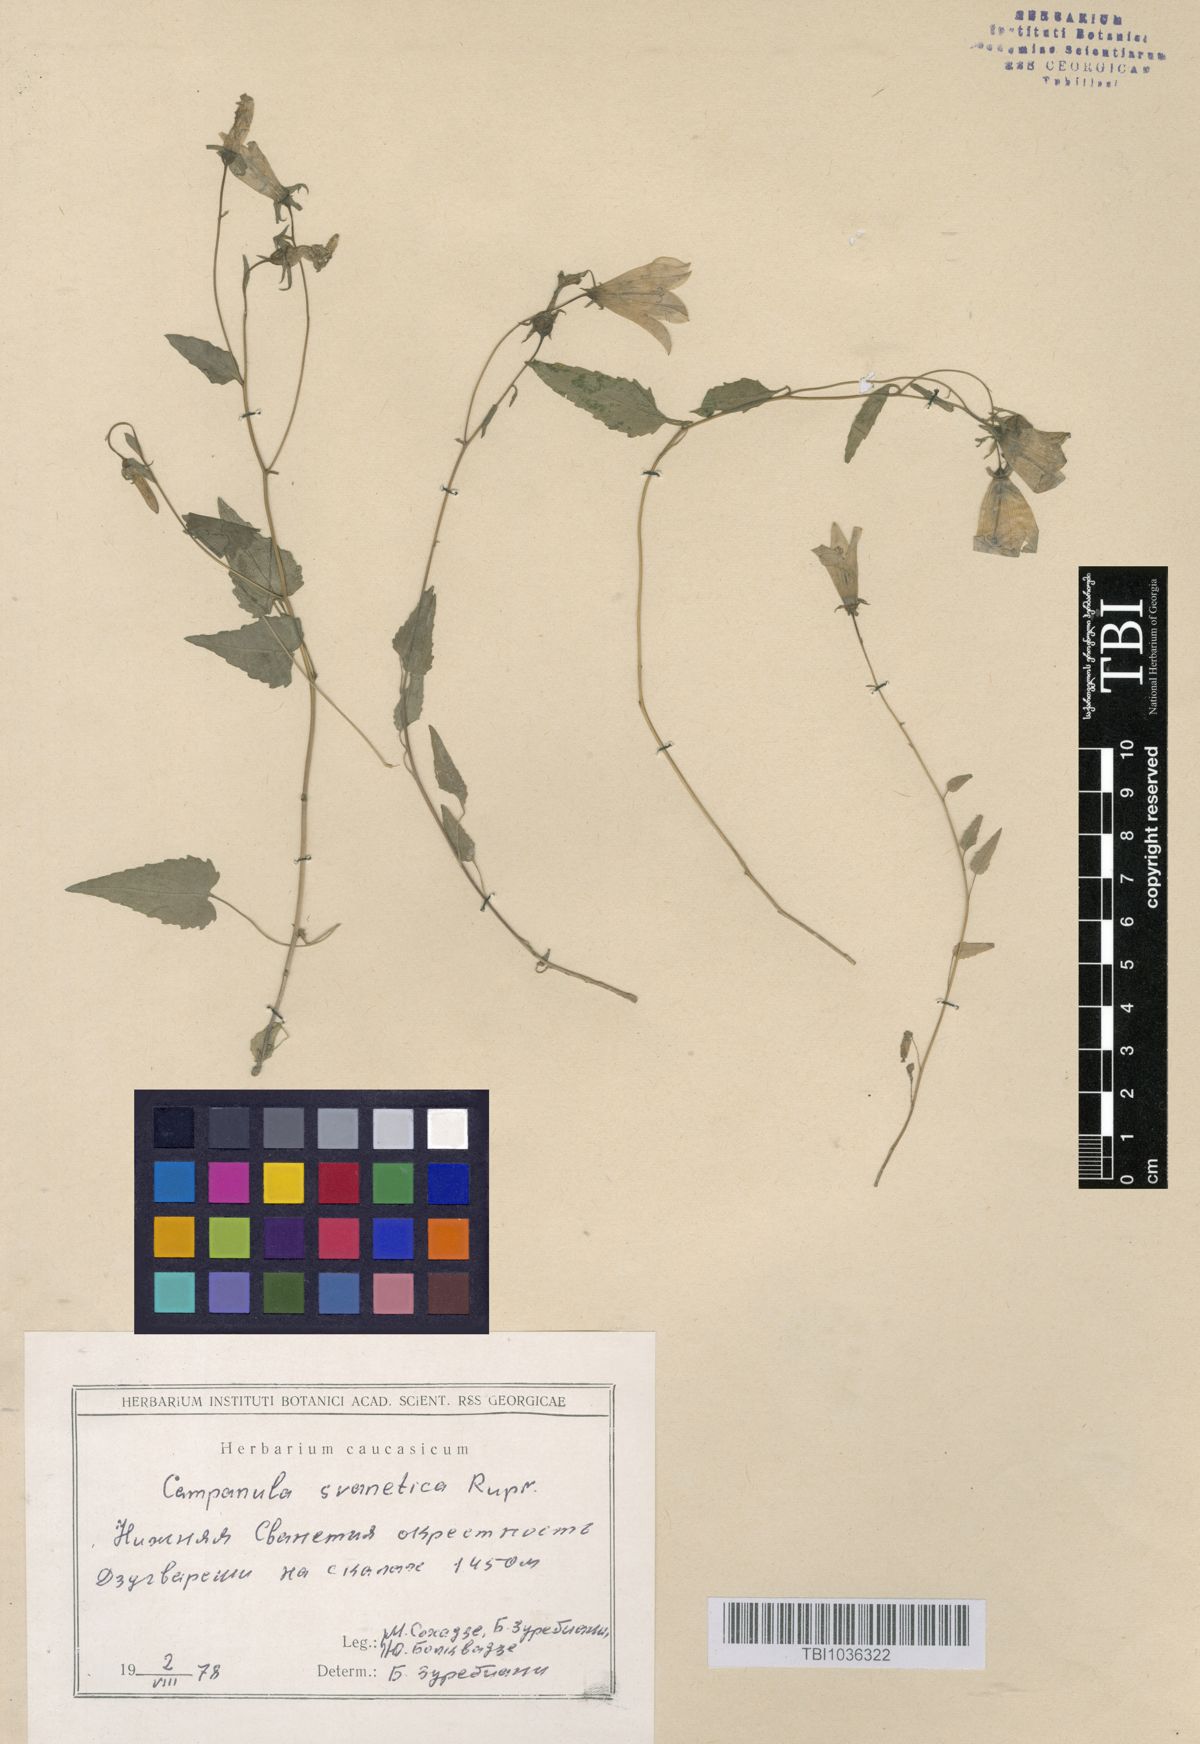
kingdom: Plantae
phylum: Tracheophyta
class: Magnoliopsida
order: Asterales
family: Campanulaceae
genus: Campanula
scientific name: Campanula suanetica
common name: Svanetian bellflower
